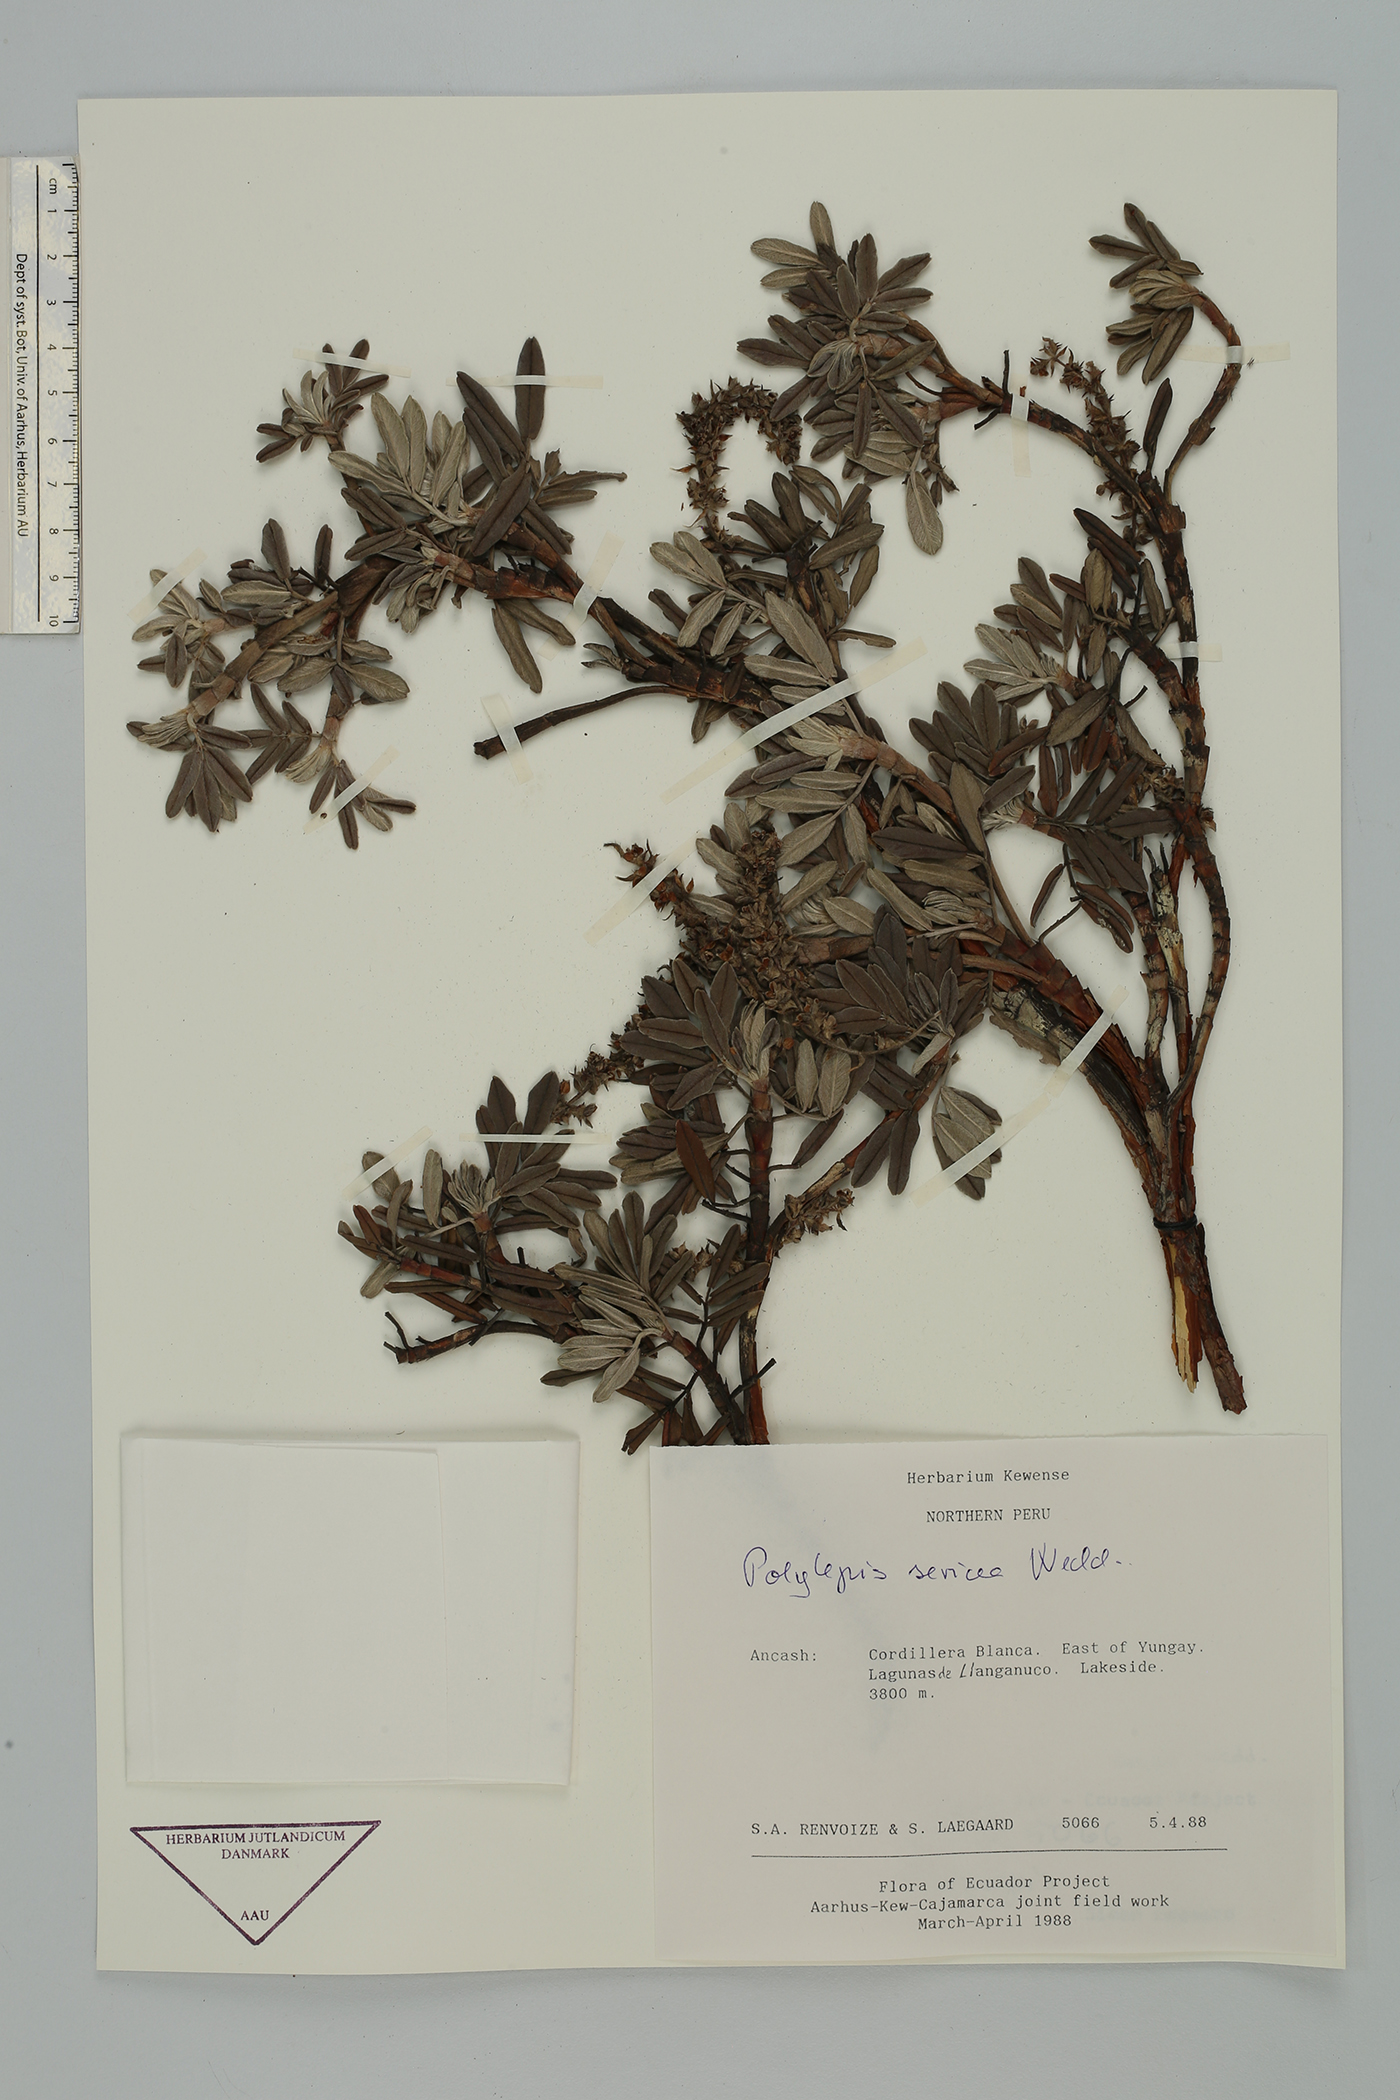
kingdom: Plantae
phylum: Tracheophyta
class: Magnoliopsida
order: Rosales
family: Rosaceae
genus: Polylepis
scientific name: Polylepis sericea
